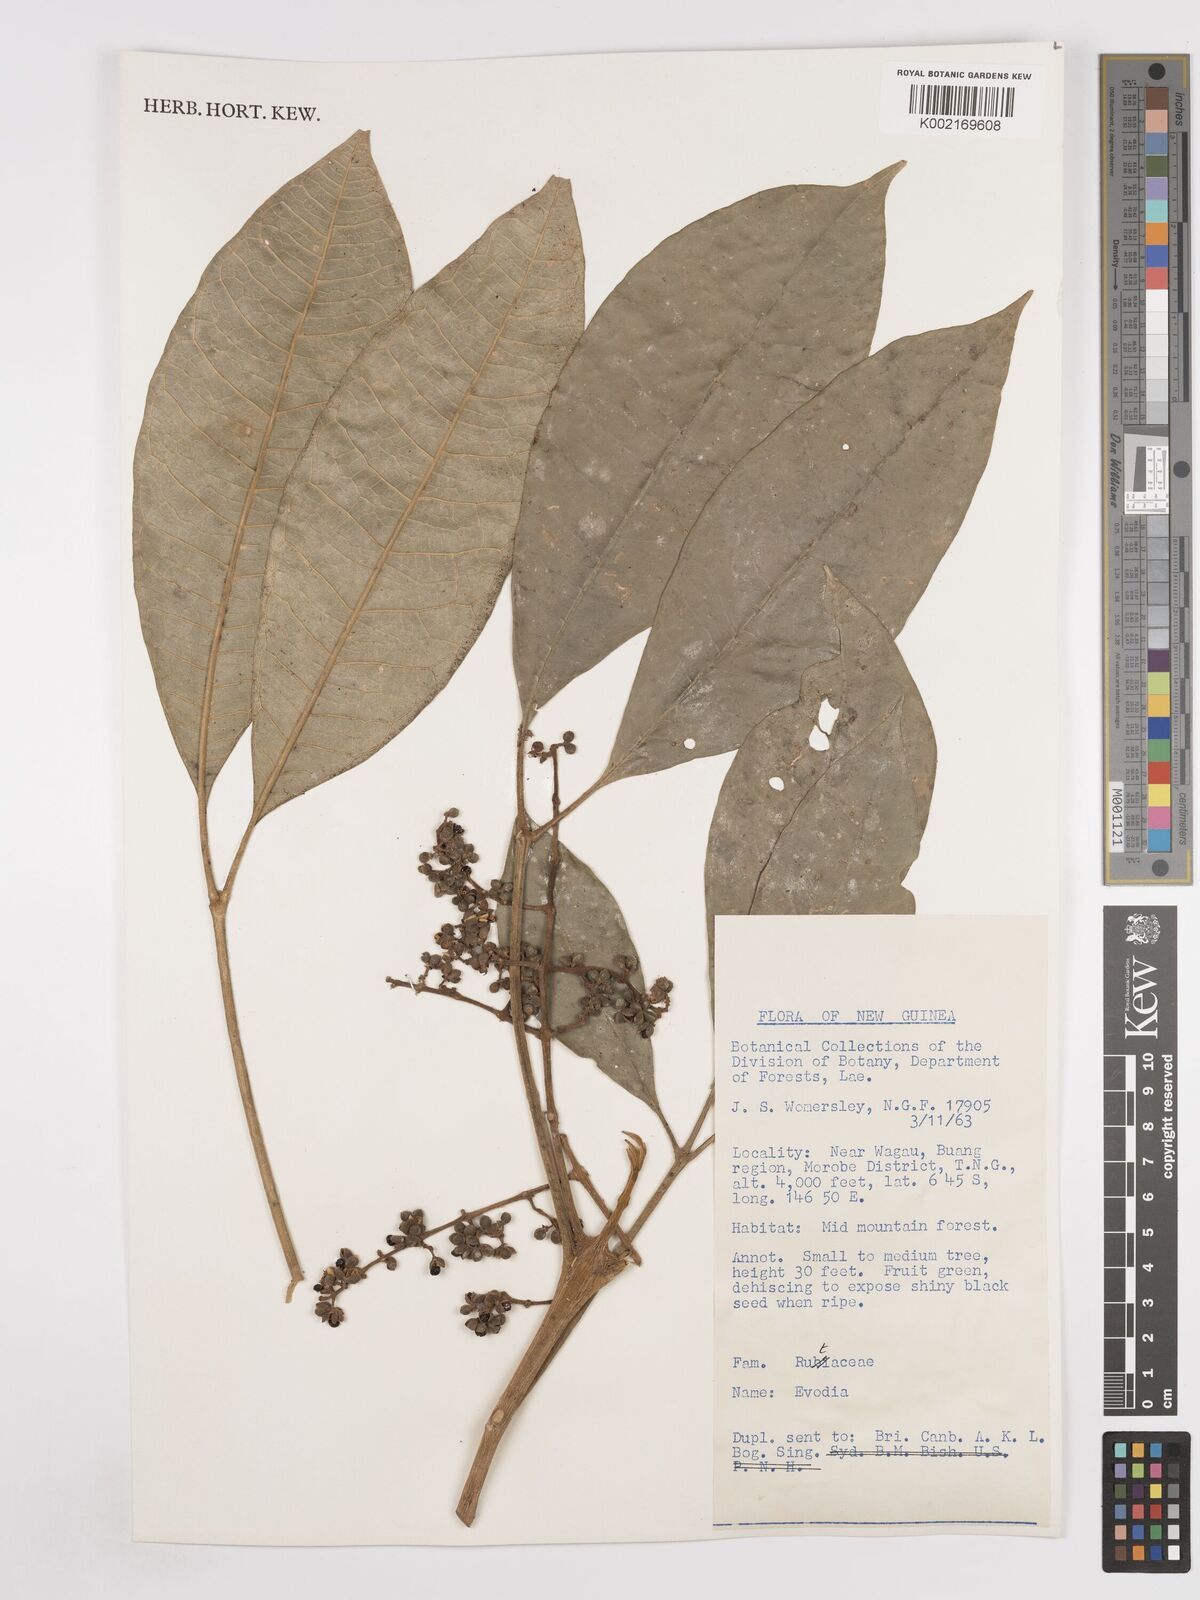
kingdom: Plantae
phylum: Tracheophyta
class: Magnoliopsida
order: Sapindales
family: Rutaceae
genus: Euodia
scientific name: Euodia
